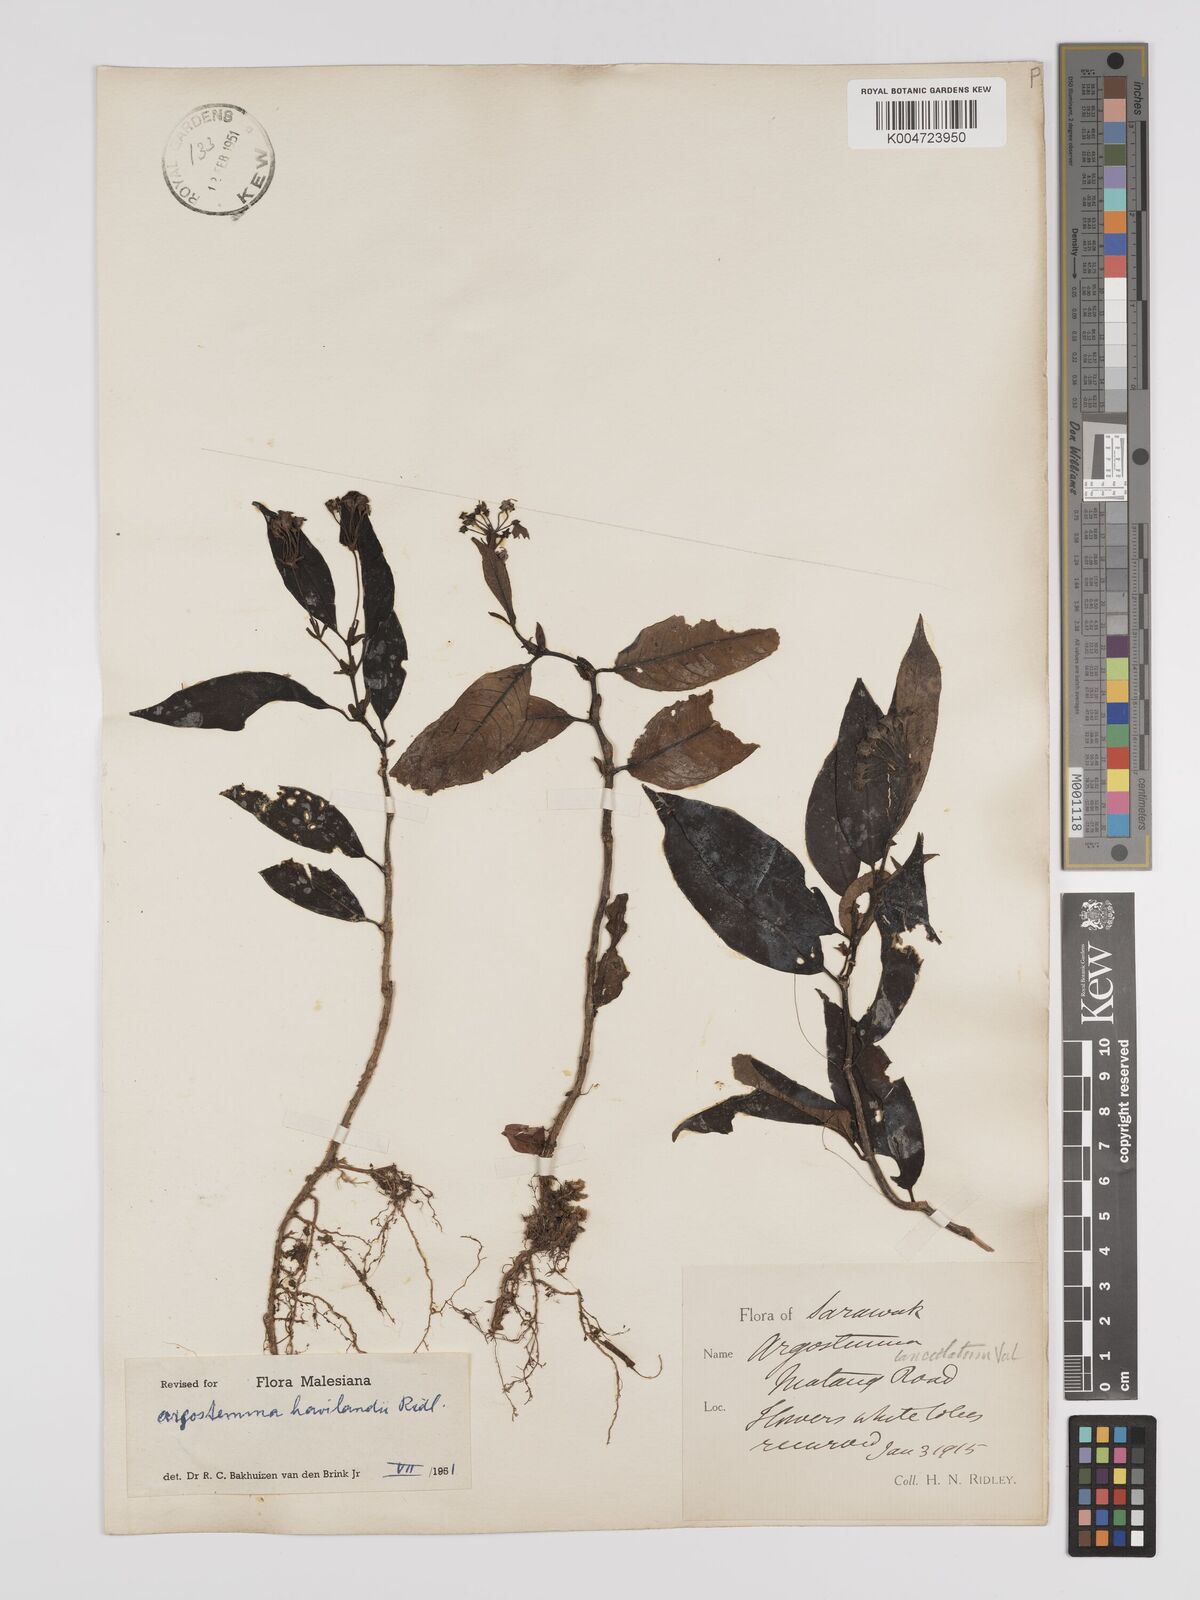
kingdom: Plantae
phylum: Tracheophyta
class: Magnoliopsida
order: Gentianales
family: Rubiaceae
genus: Argostemma
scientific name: Argostemma havilandii
